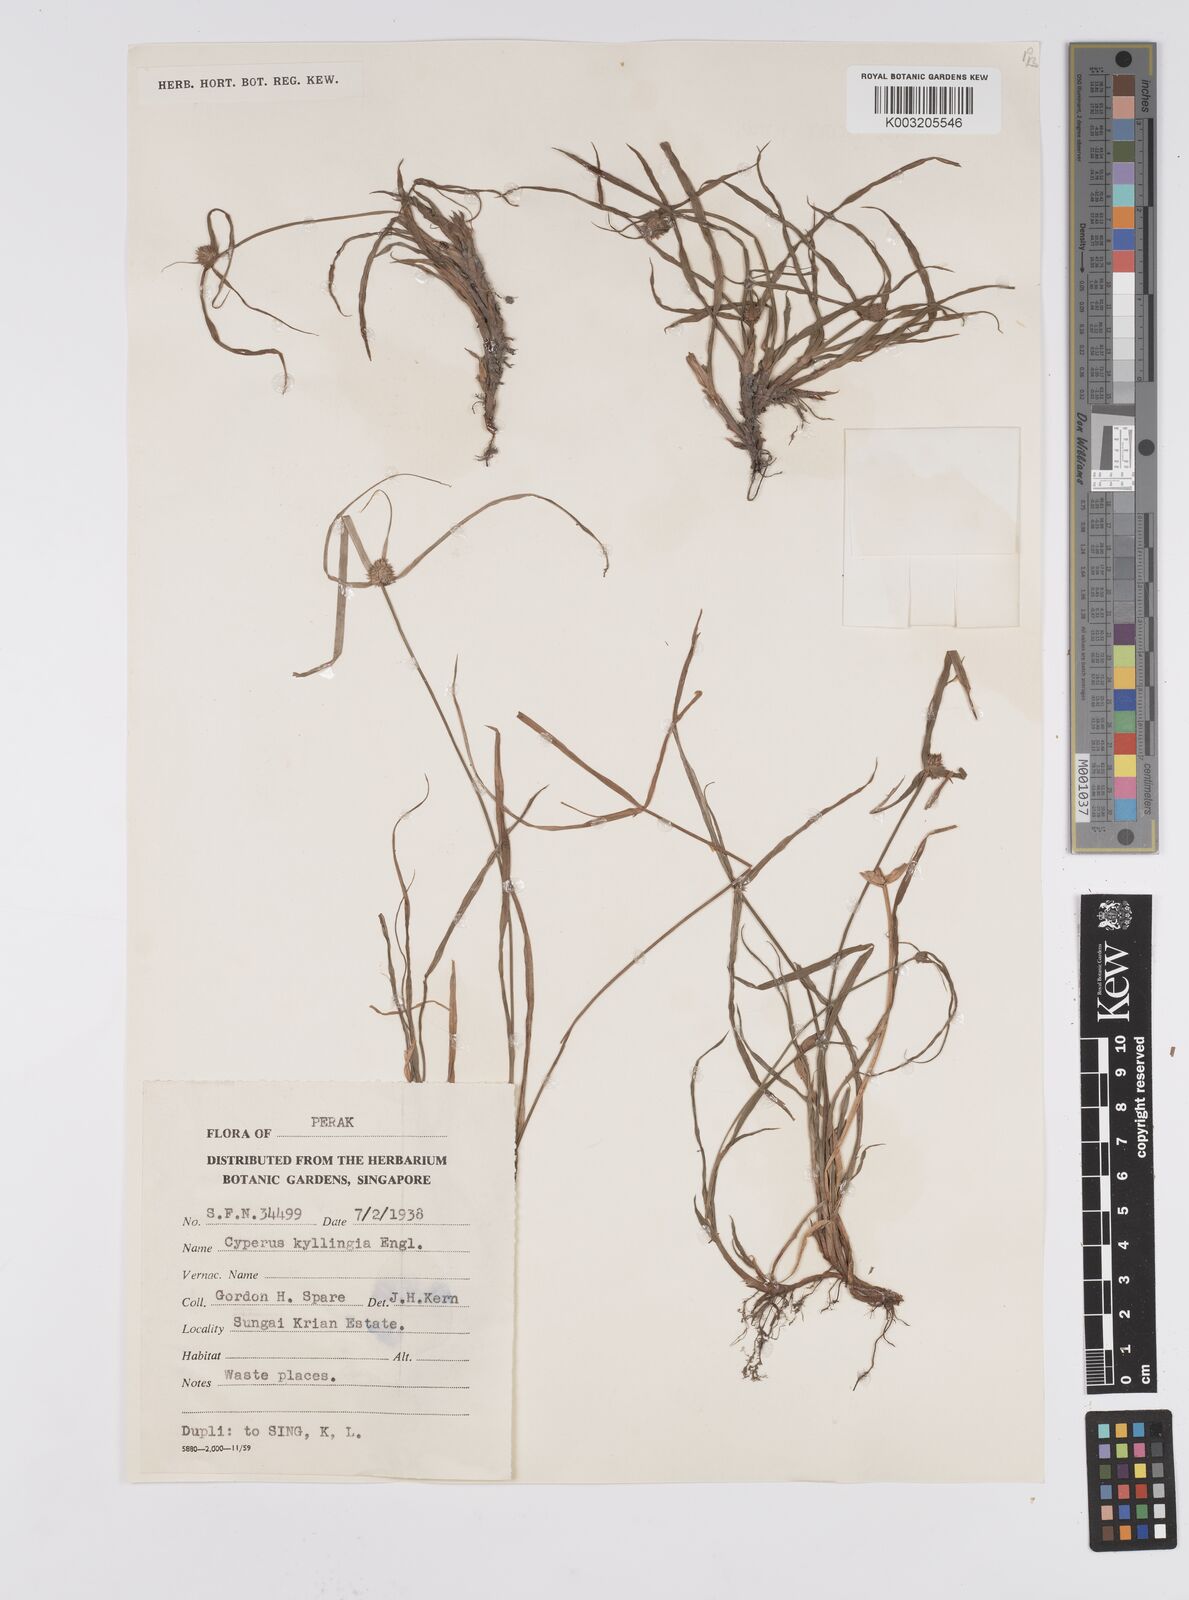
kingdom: Plantae
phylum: Tracheophyta
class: Liliopsida
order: Poales
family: Cyperaceae
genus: Cyperus
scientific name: Cyperus nemoralis
